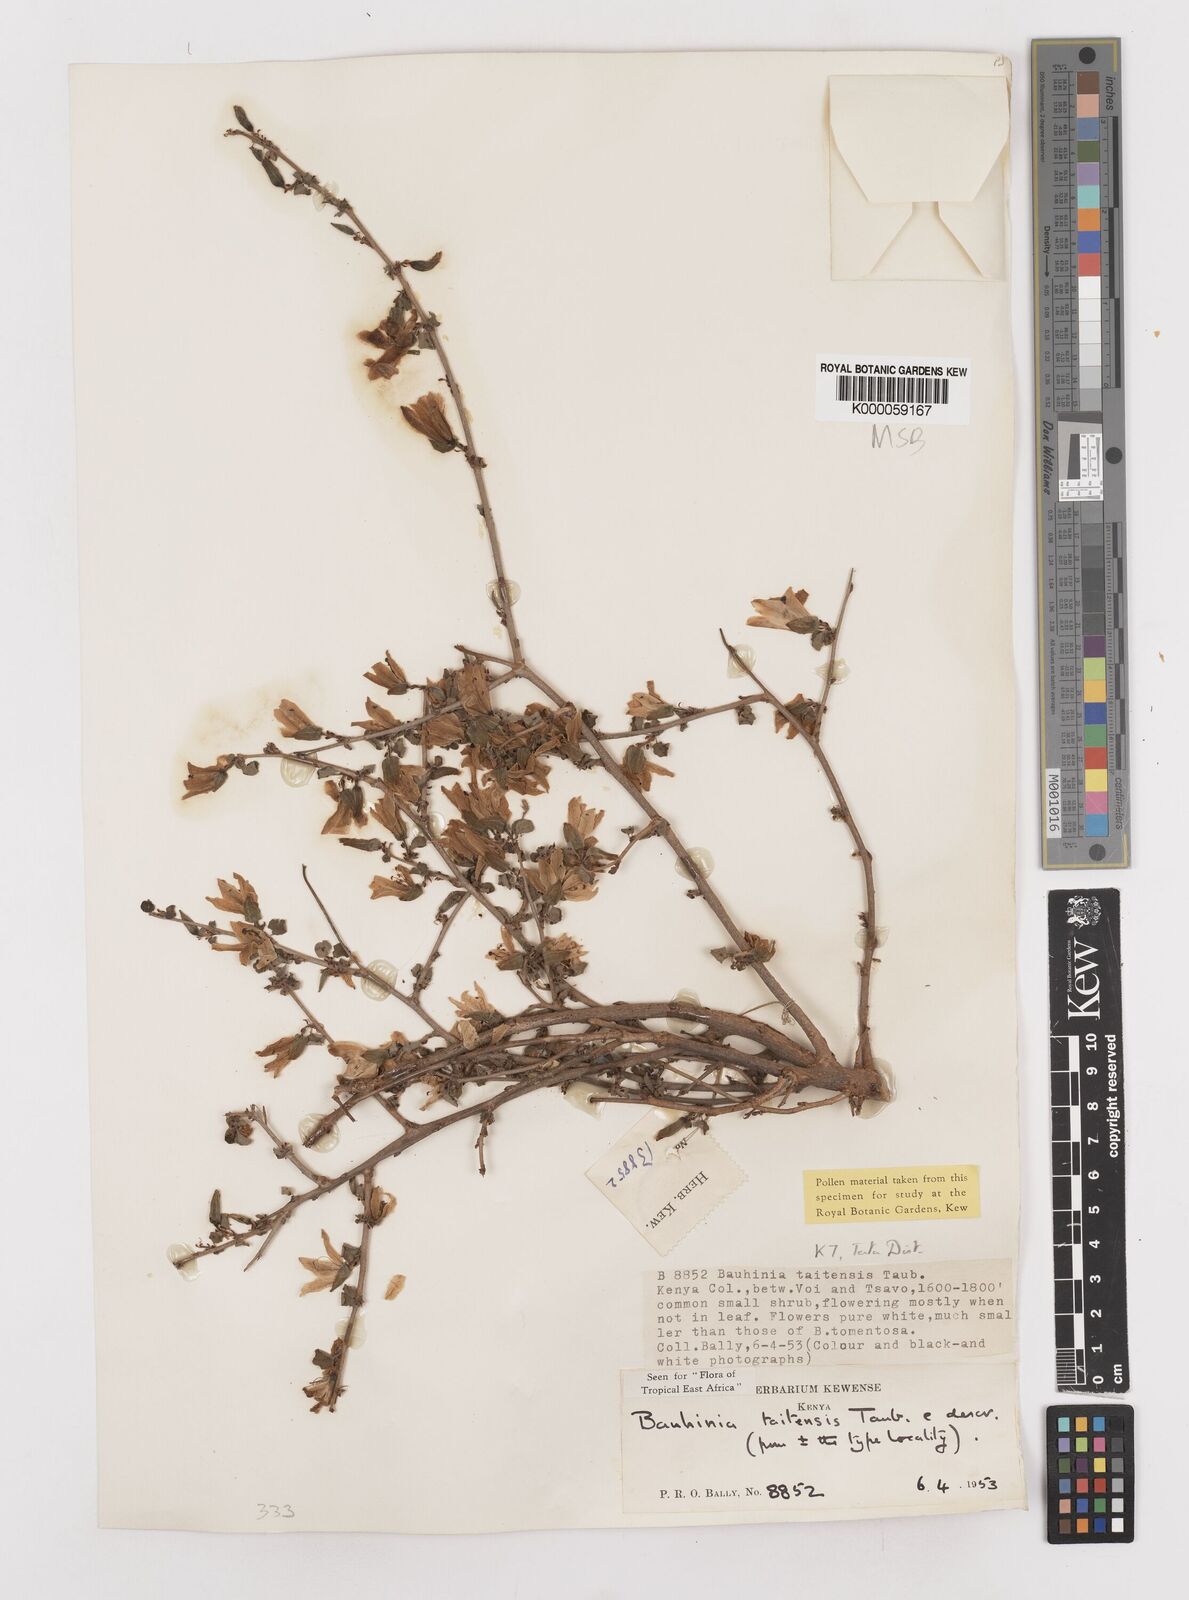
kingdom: Plantae
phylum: Tracheophyta
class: Magnoliopsida
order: Fabales
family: Fabaceae
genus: Bauhinia
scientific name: Bauhinia taitensis
